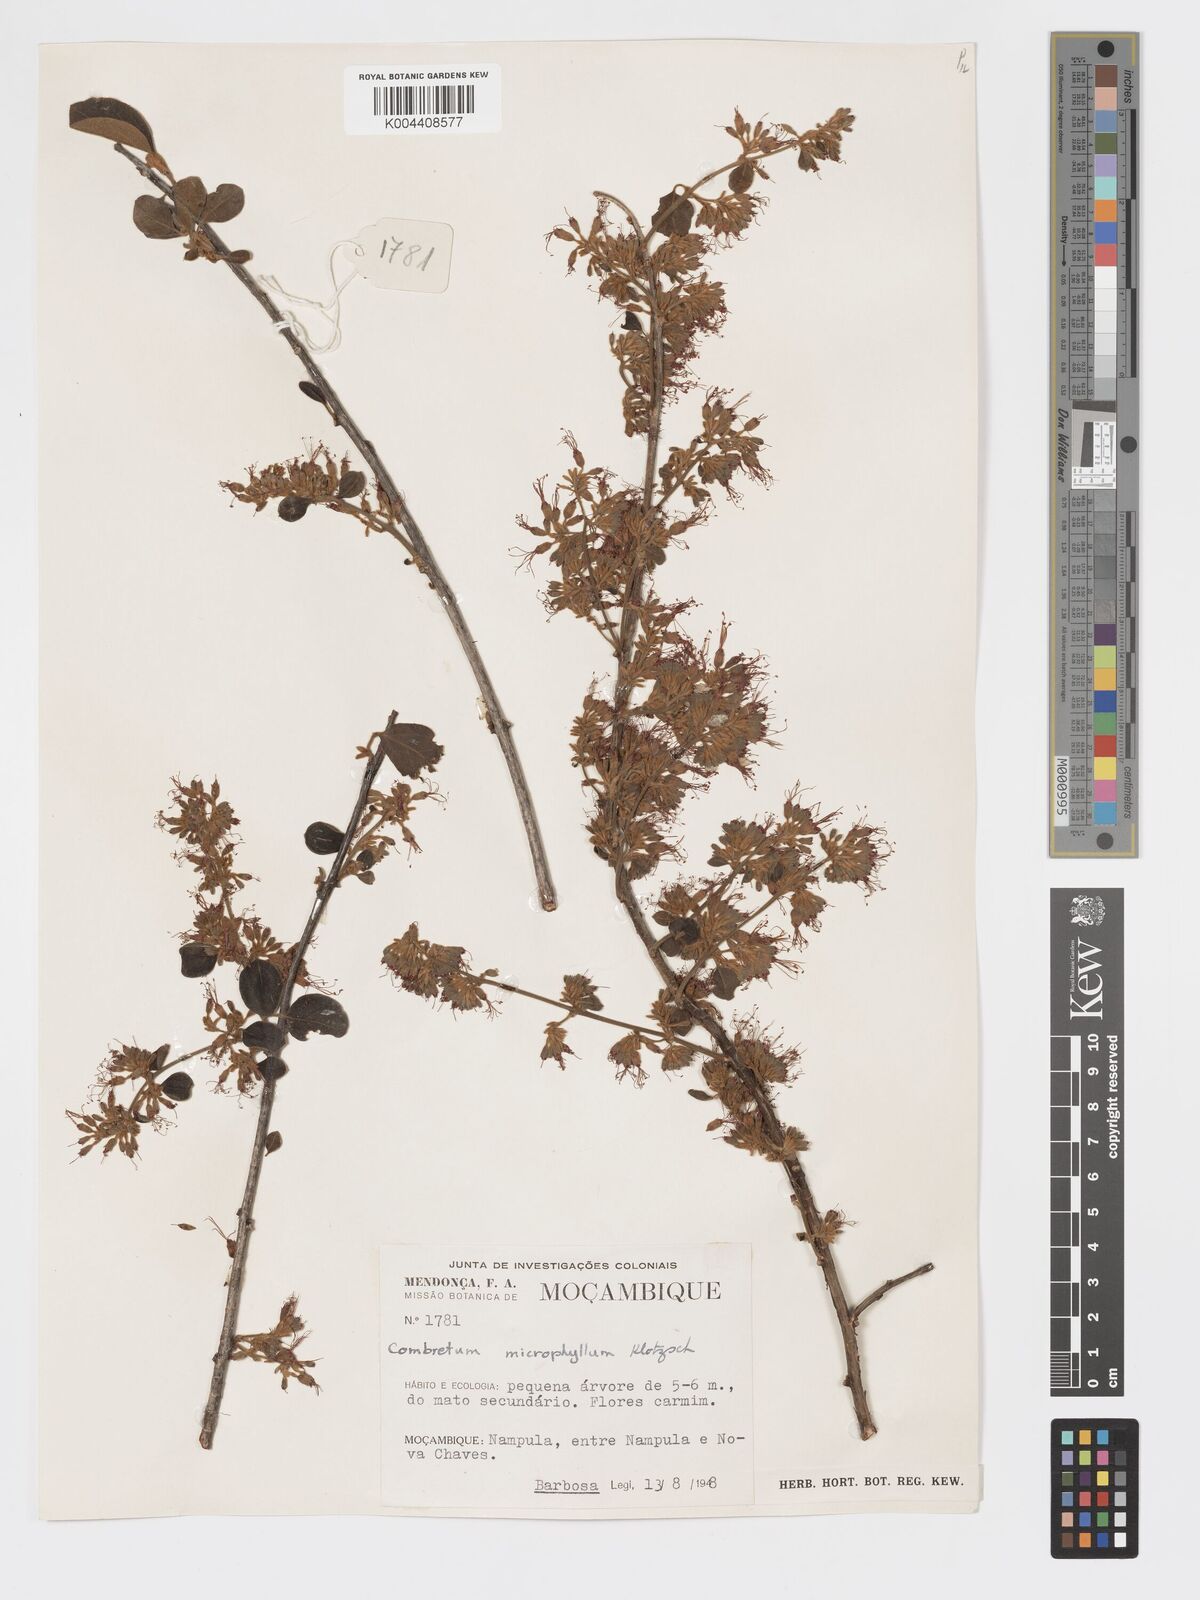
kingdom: Plantae
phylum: Tracheophyta
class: Magnoliopsida
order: Myrtales
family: Combretaceae
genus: Combretum
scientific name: Combretum microphyllum
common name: Burningbush
